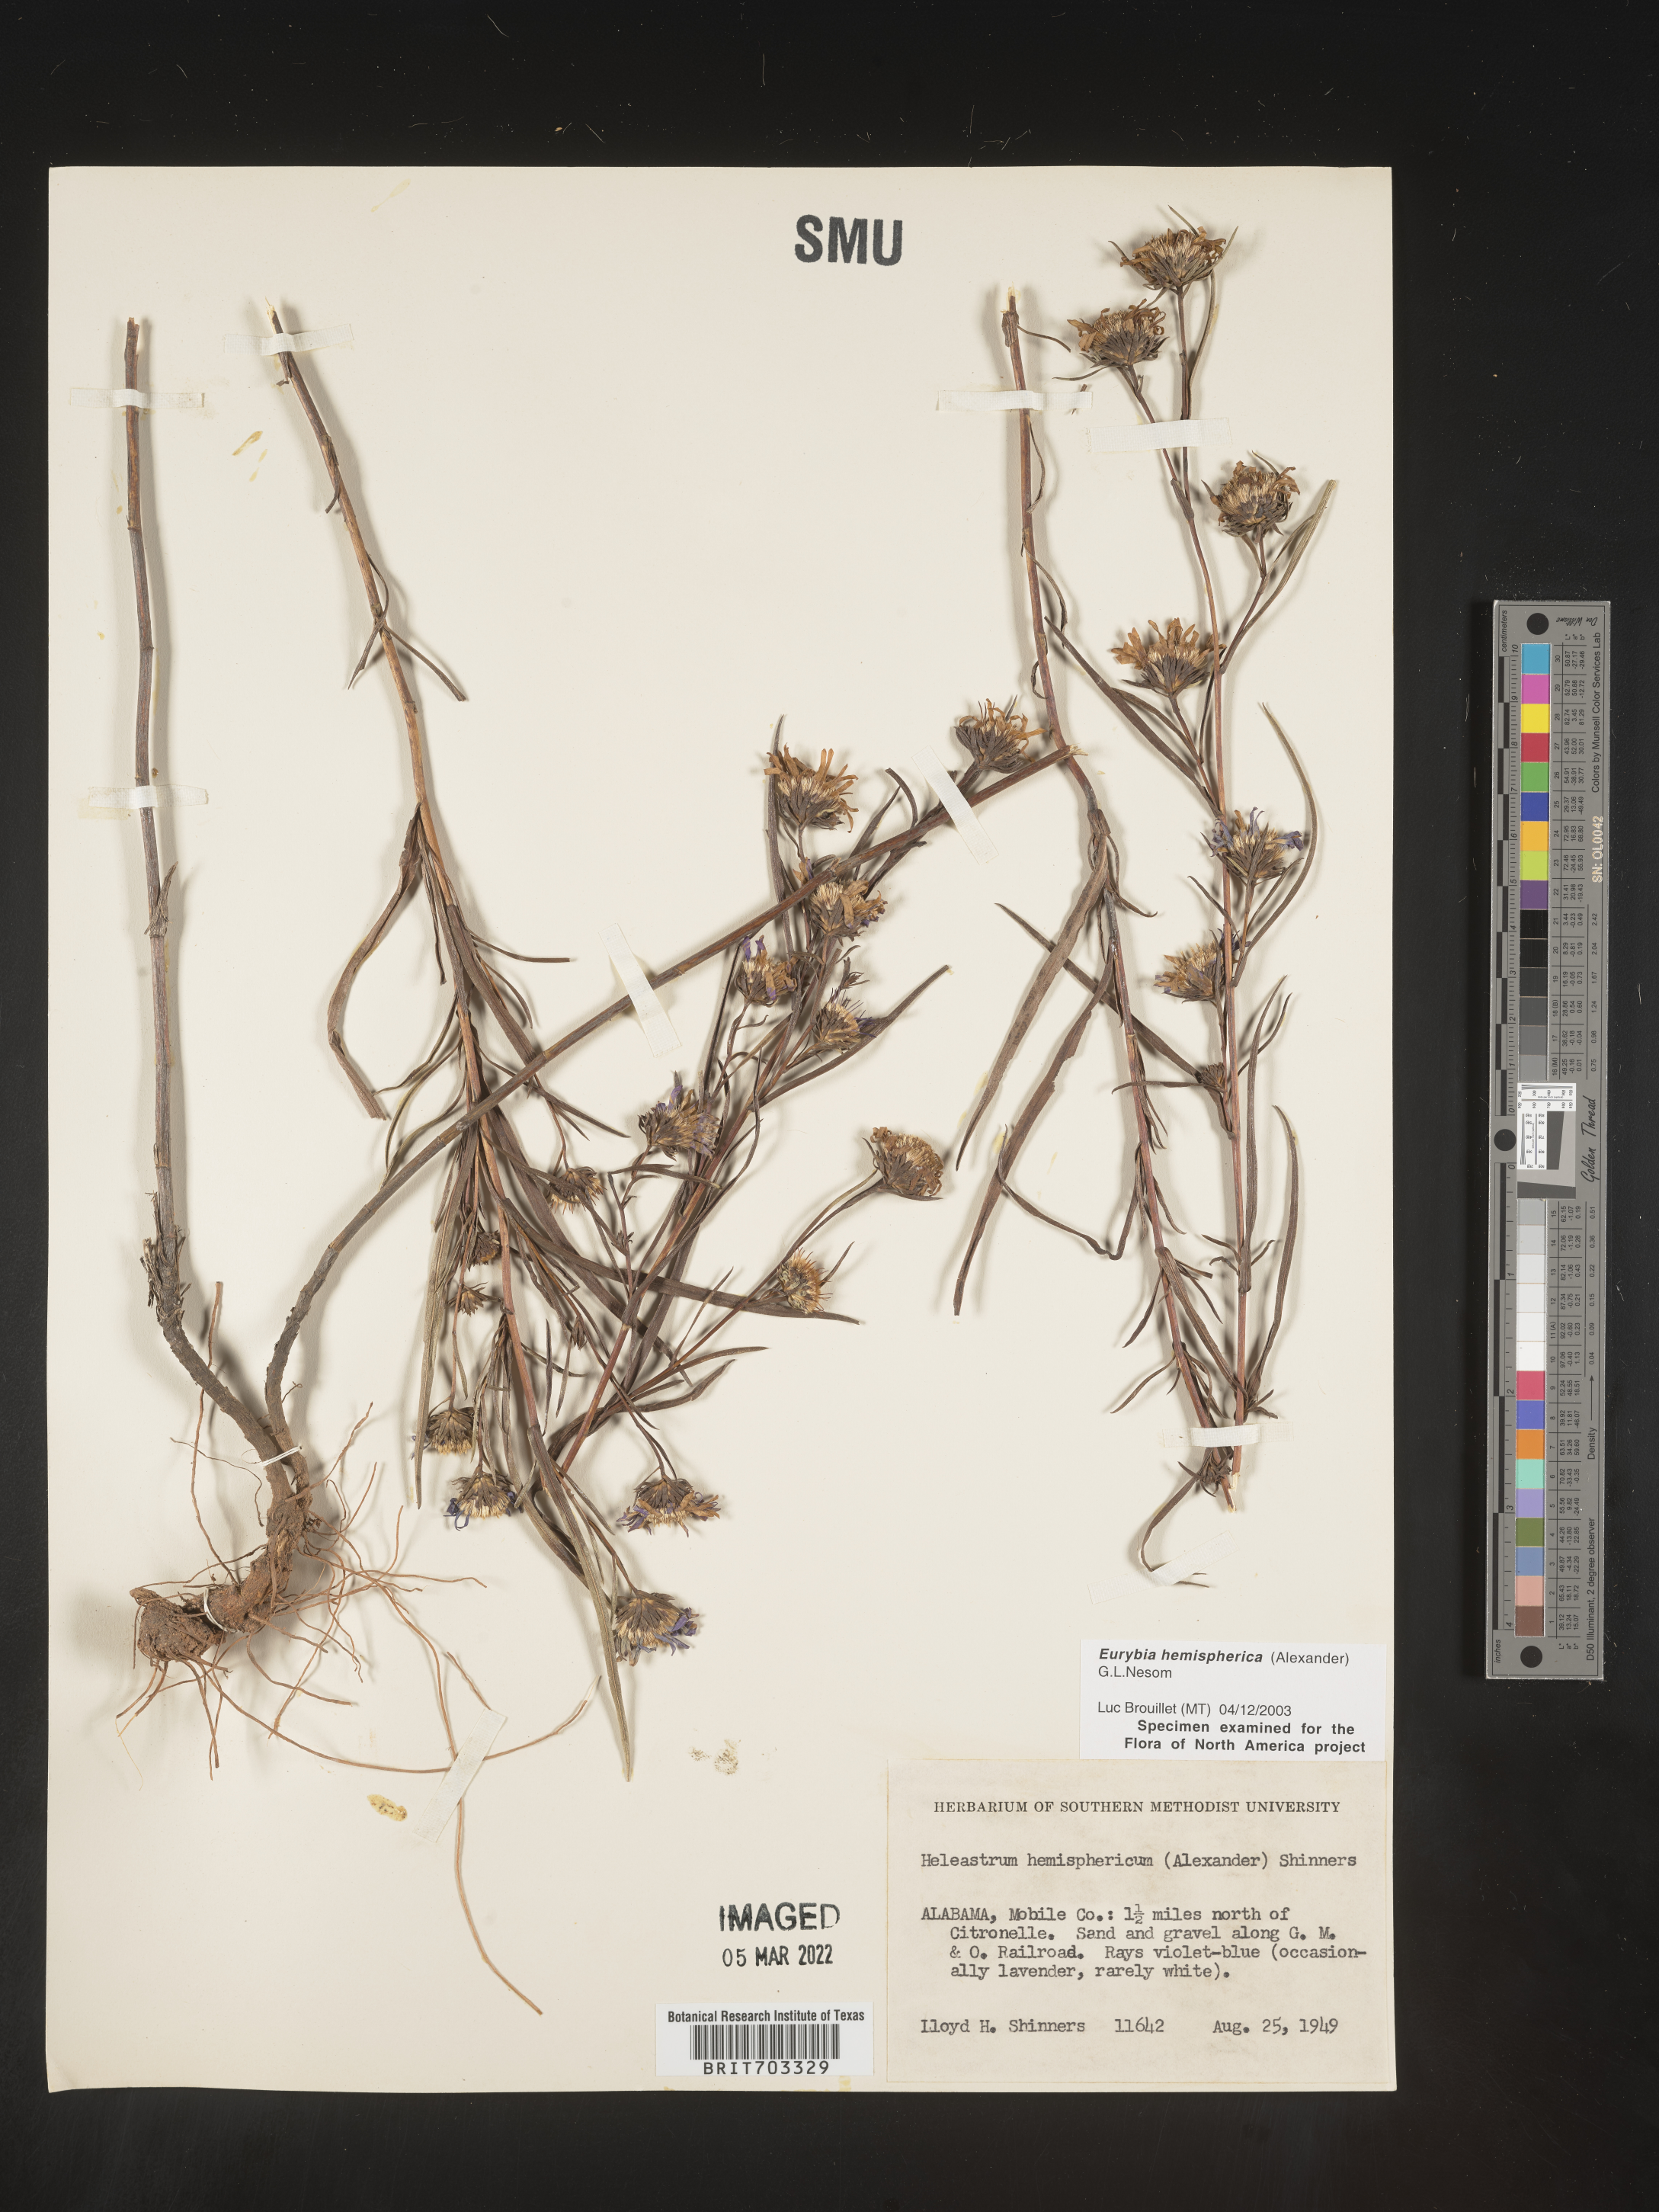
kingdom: Plantae
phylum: Tracheophyta
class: Magnoliopsida
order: Asterales
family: Asteraceae
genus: Eurybia
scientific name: Eurybia hemispherica
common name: Showy aster
